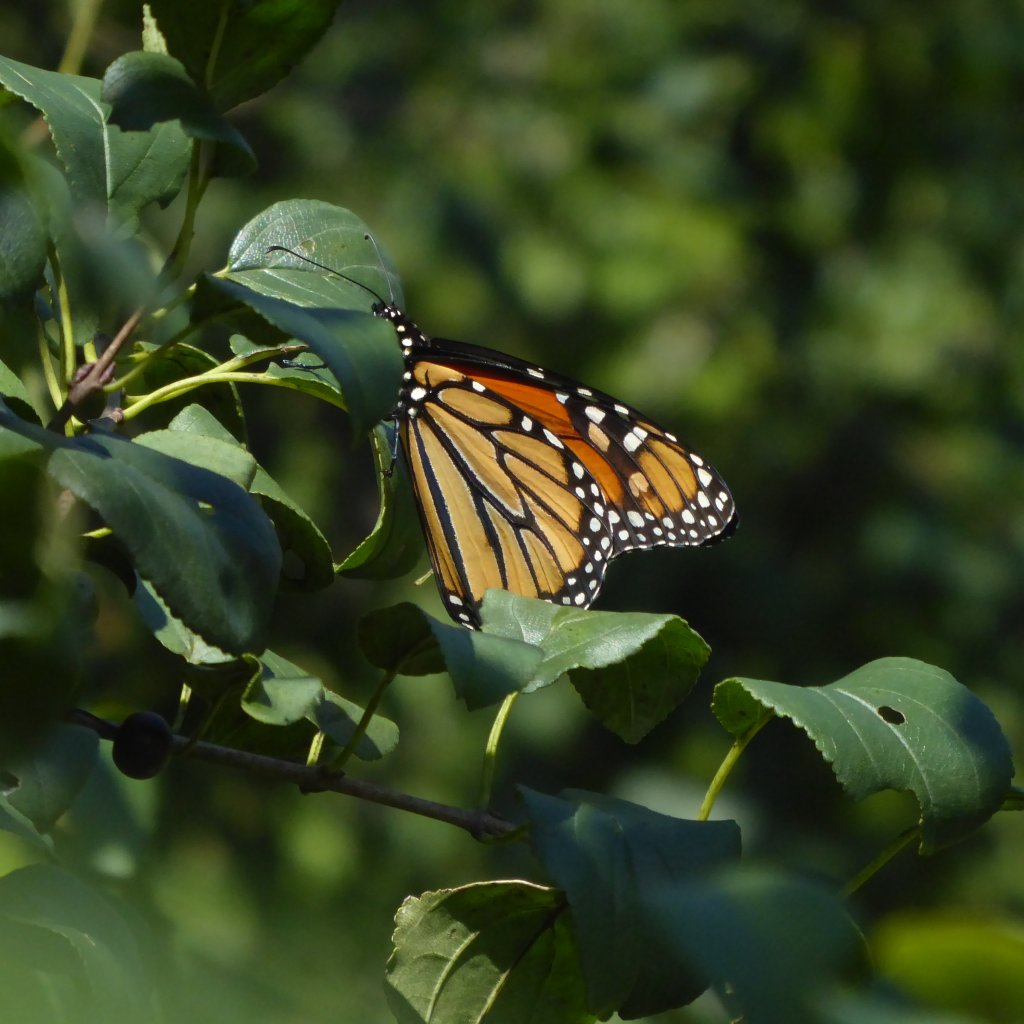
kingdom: Animalia
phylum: Arthropoda
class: Insecta
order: Lepidoptera
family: Nymphalidae
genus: Danaus
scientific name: Danaus plexippus
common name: Monarch
